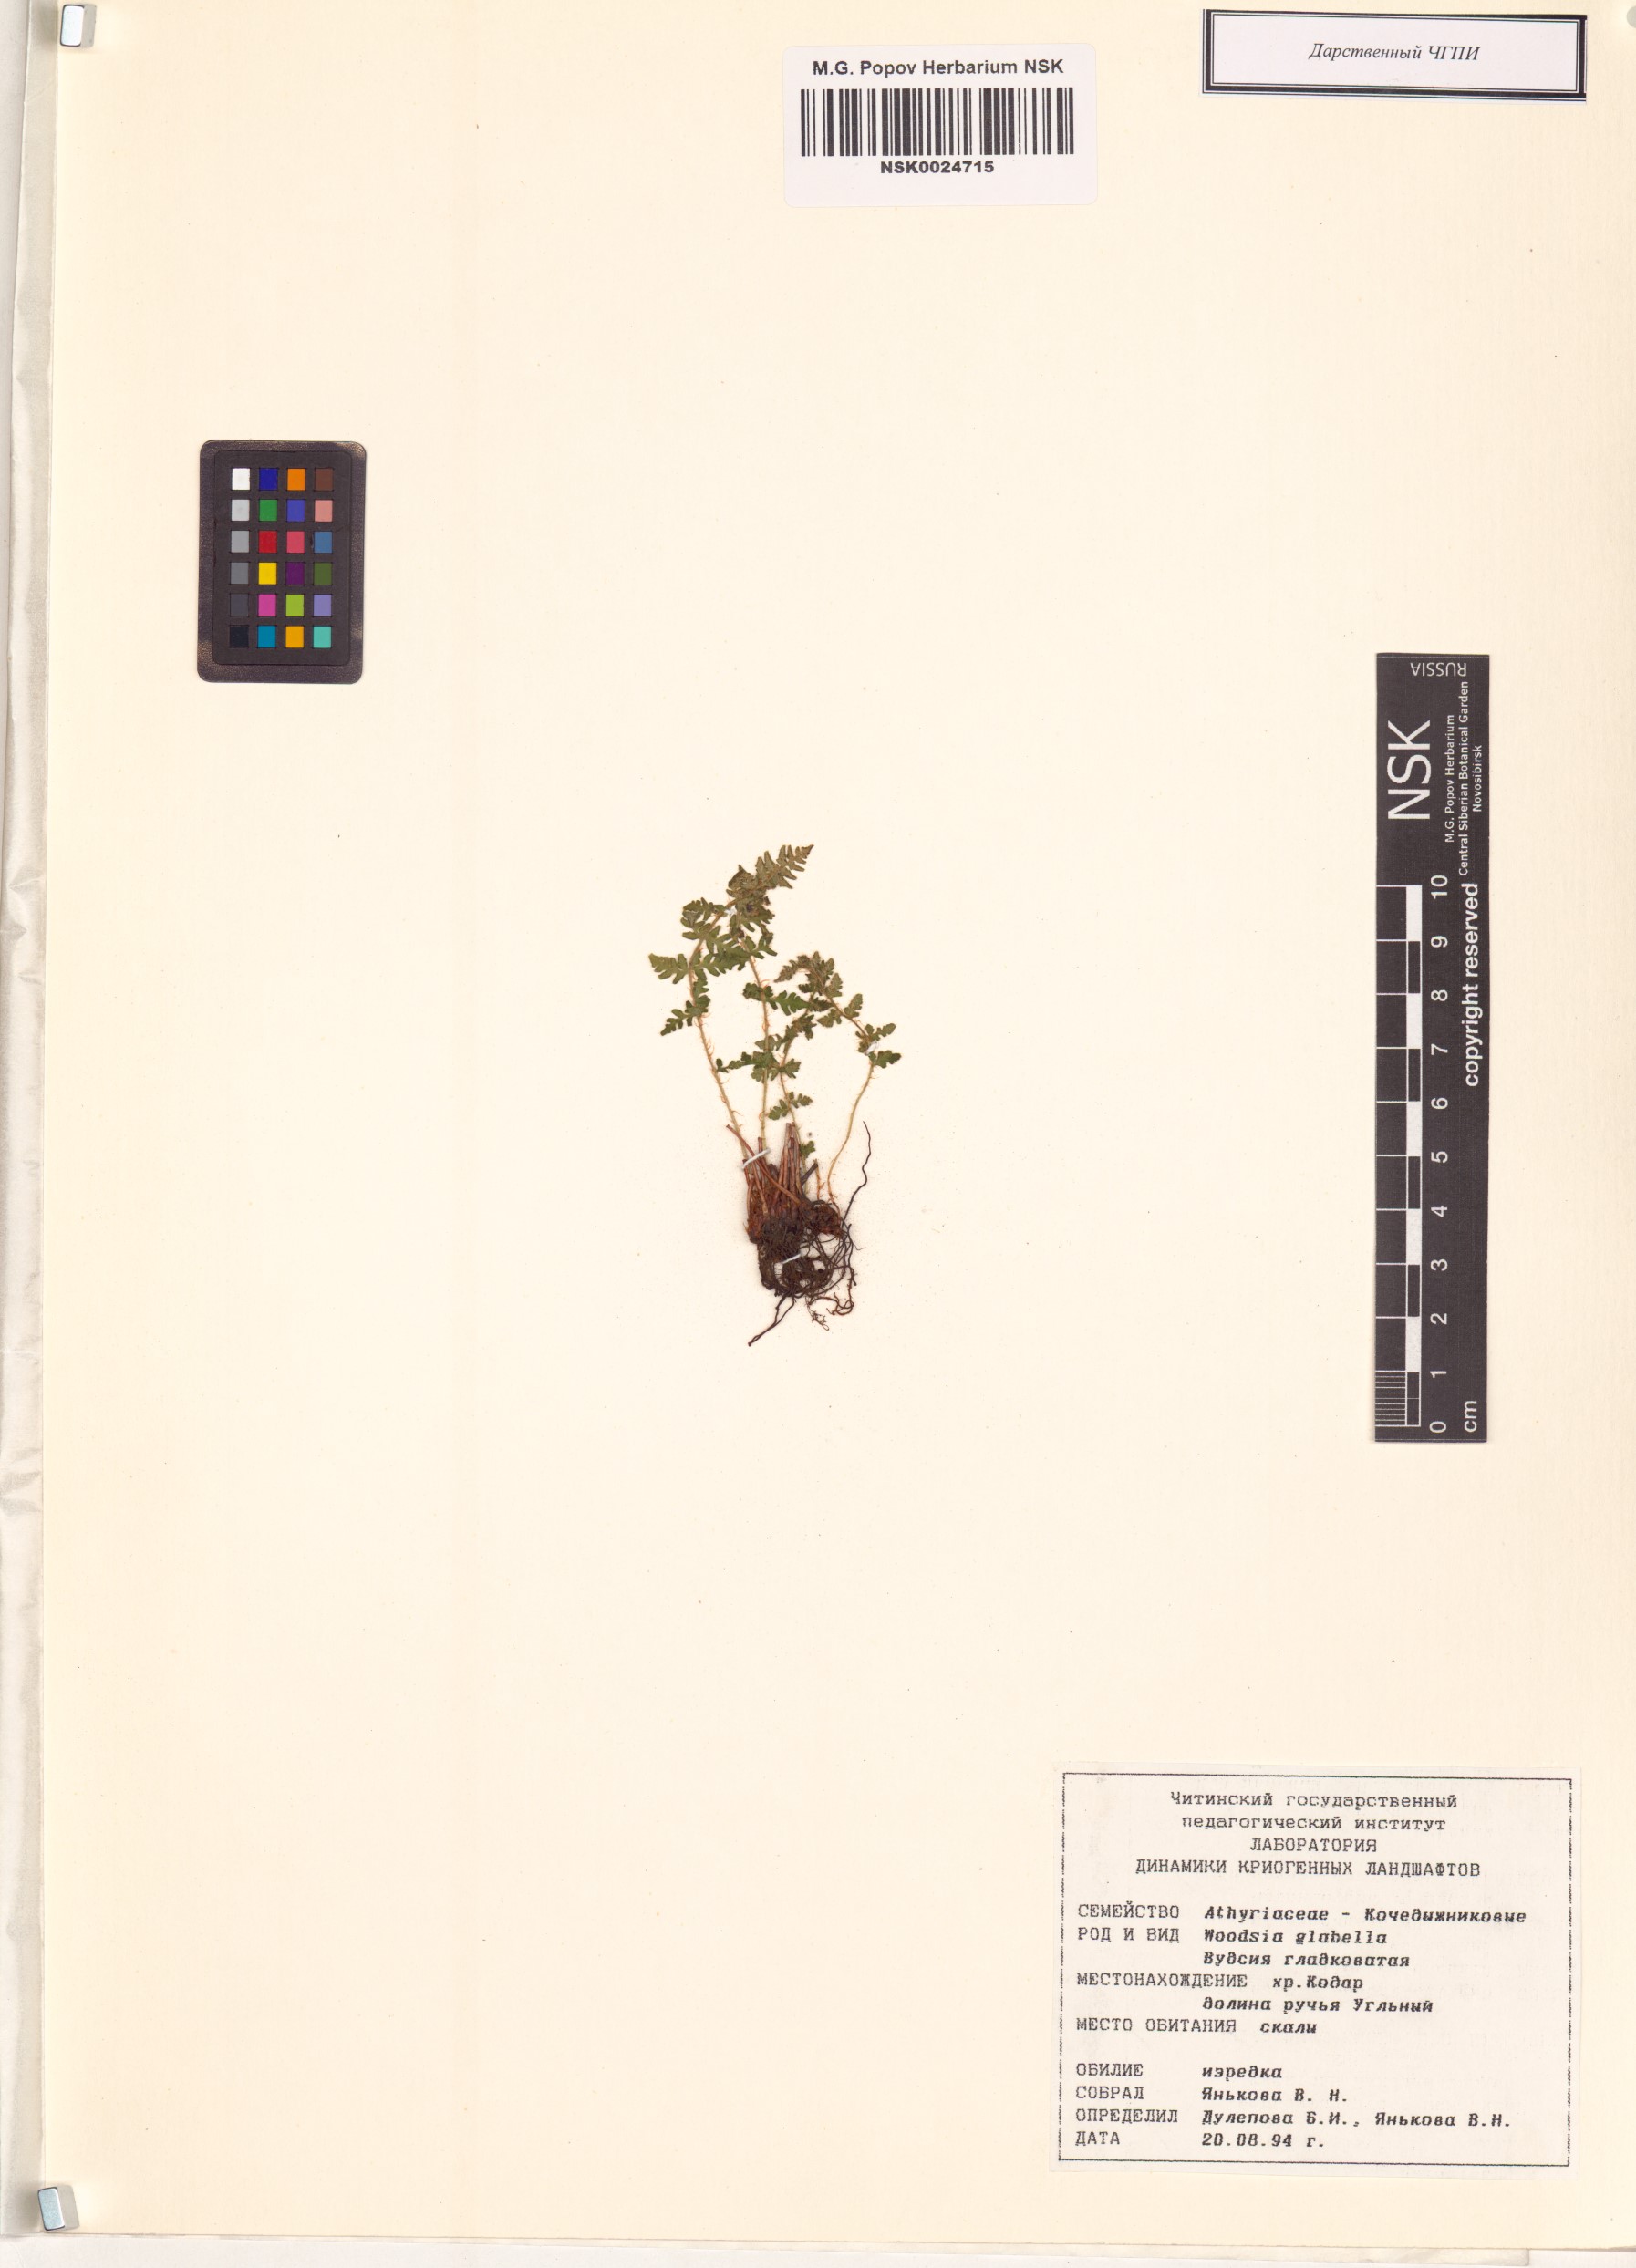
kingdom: Plantae
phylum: Tracheophyta
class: Polypodiopsida
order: Polypodiales
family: Woodsiaceae
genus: Woodsia
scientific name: Woodsia glabella
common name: Smooth woodsia
